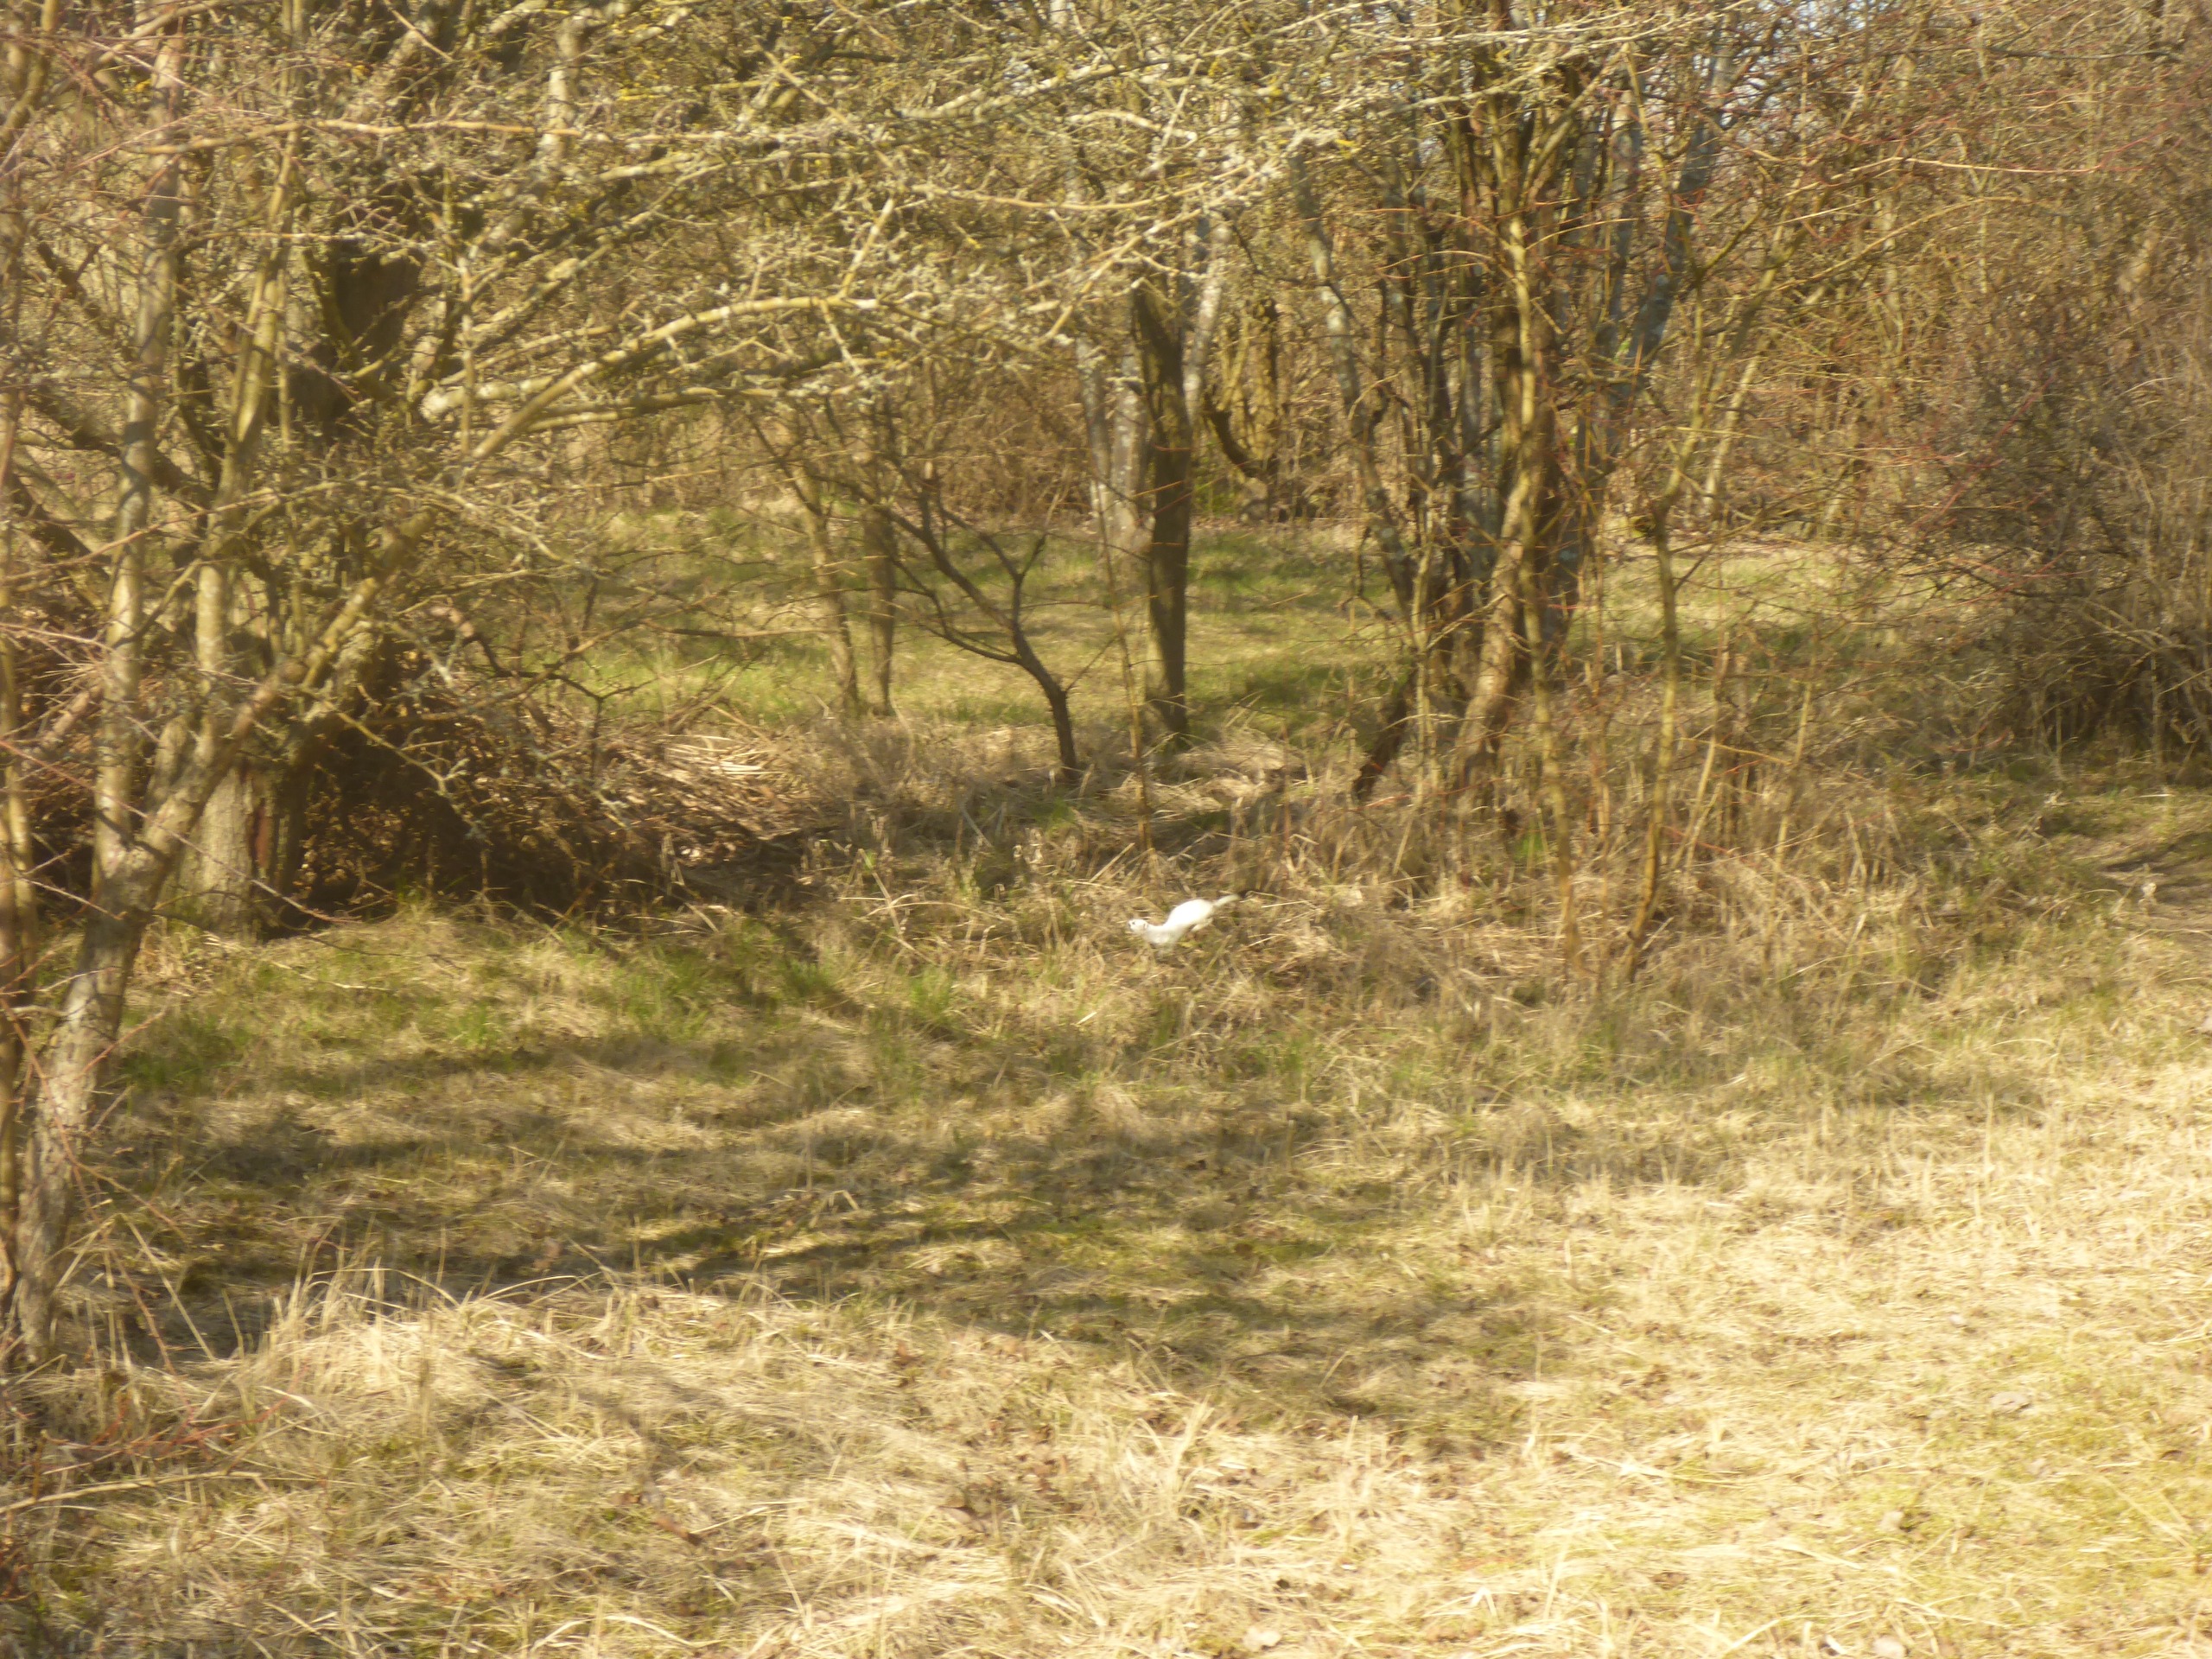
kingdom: Animalia
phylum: Chordata
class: Mammalia
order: Carnivora
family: Mustelidae
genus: Mustela
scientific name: Mustela erminea
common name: Lækat
